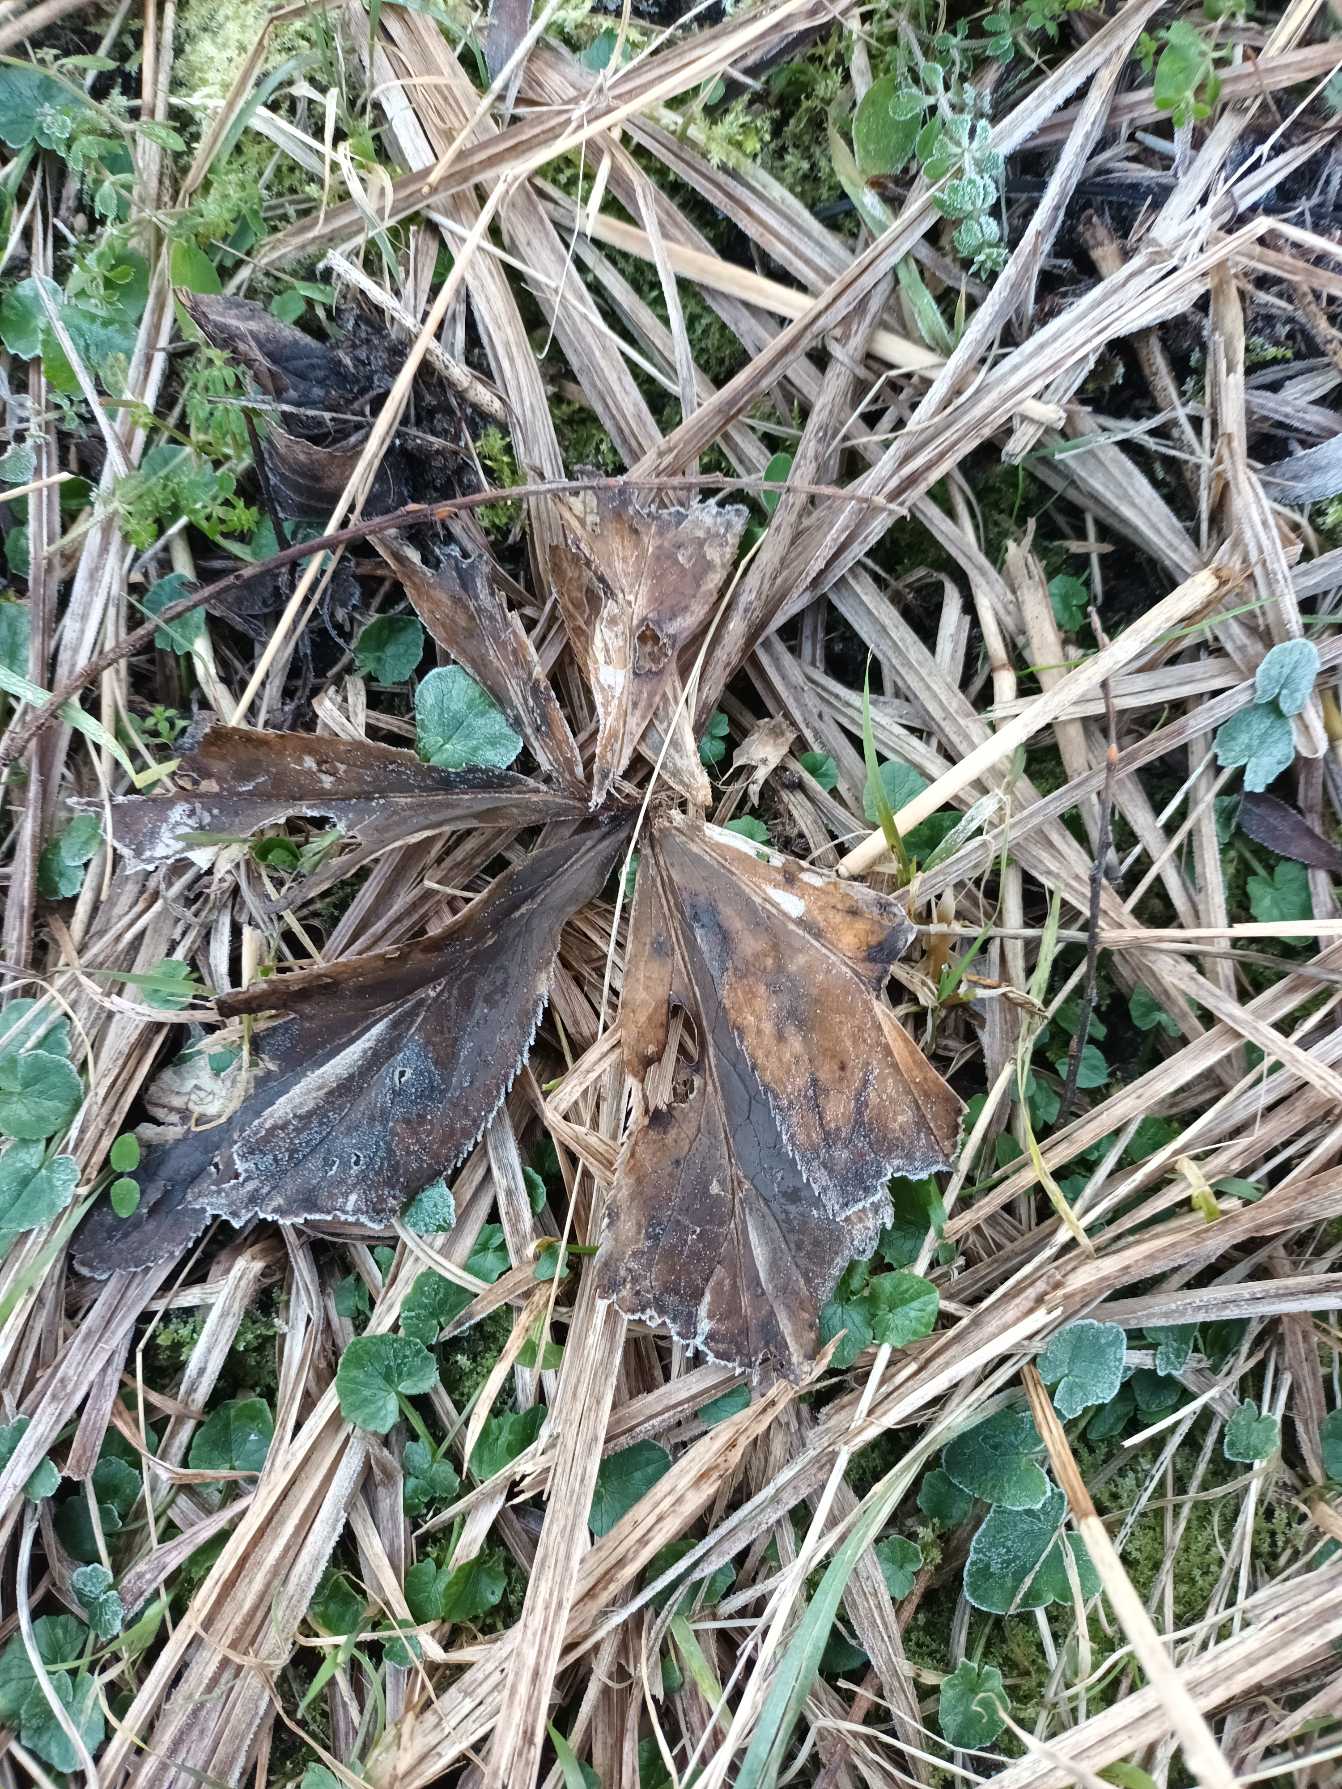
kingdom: Plantae
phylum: Tracheophyta
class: Magnoliopsida
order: Ranunculales
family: Ranunculaceae
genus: Helleborus
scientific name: Helleborus orientalis
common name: Rød julerose
